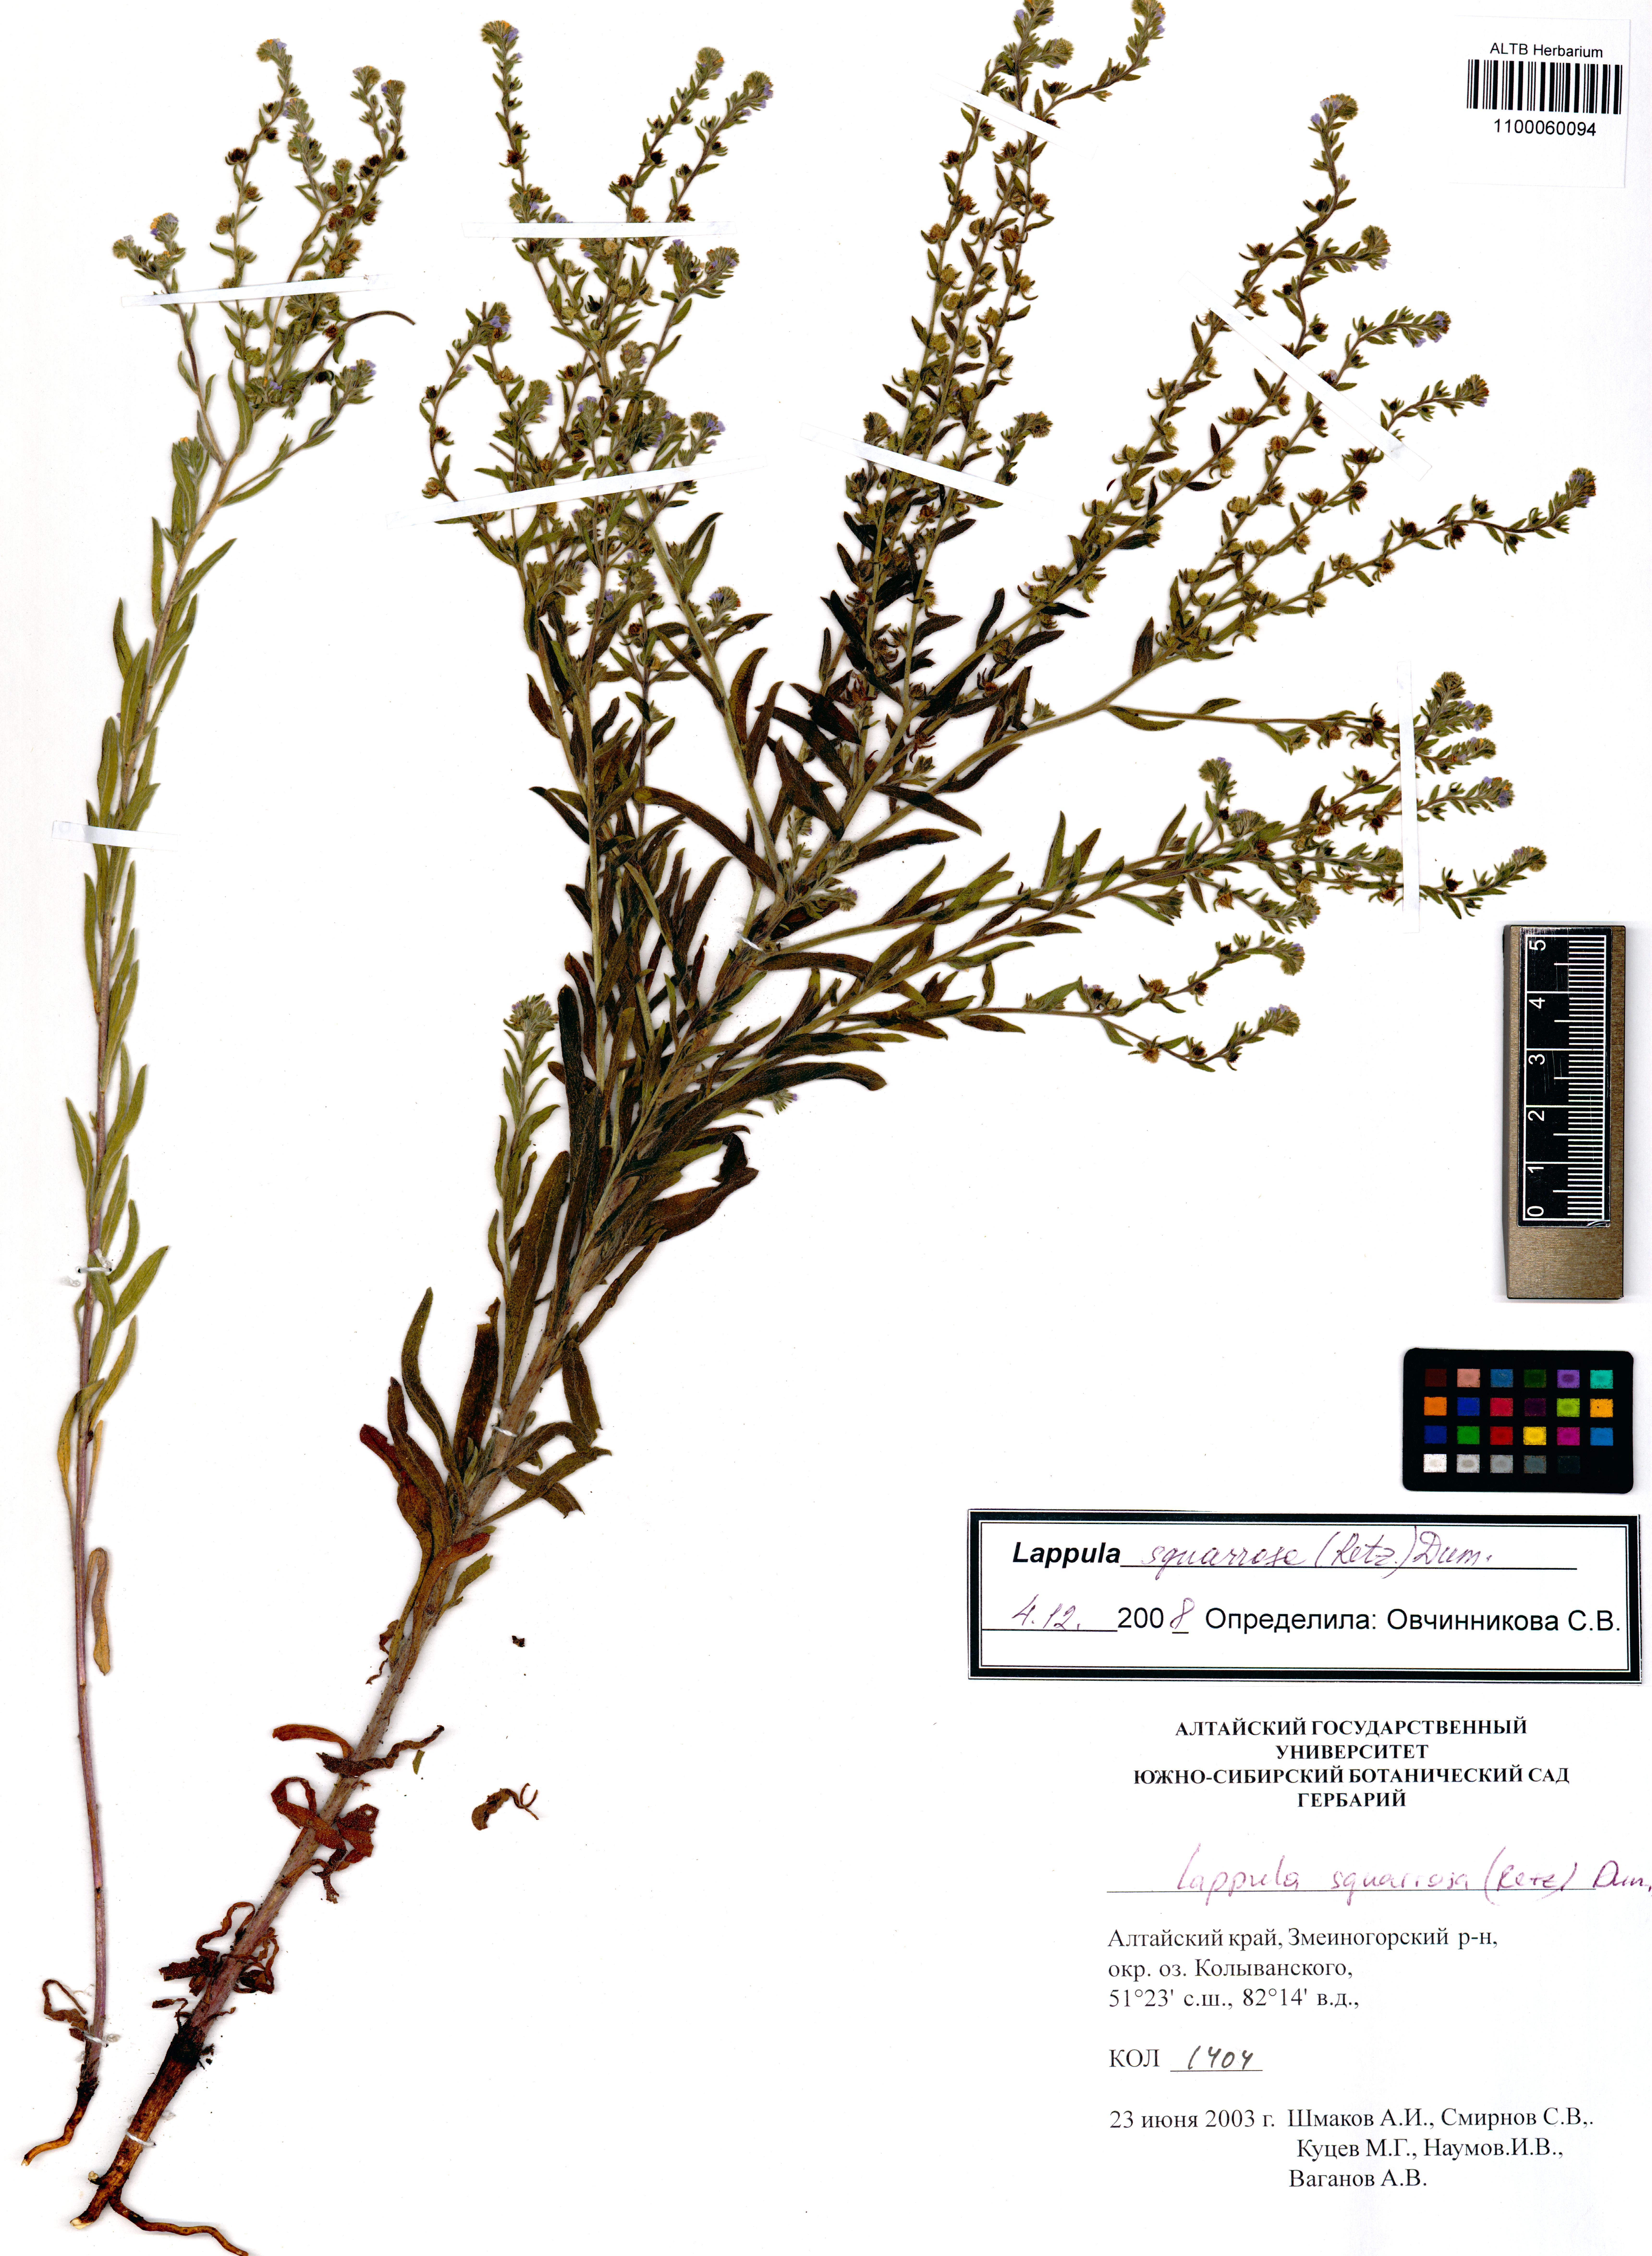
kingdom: Plantae
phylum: Tracheophyta
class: Magnoliopsida
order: Boraginales
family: Boraginaceae
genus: Lappula
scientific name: Lappula squarrosa
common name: European stickseed
